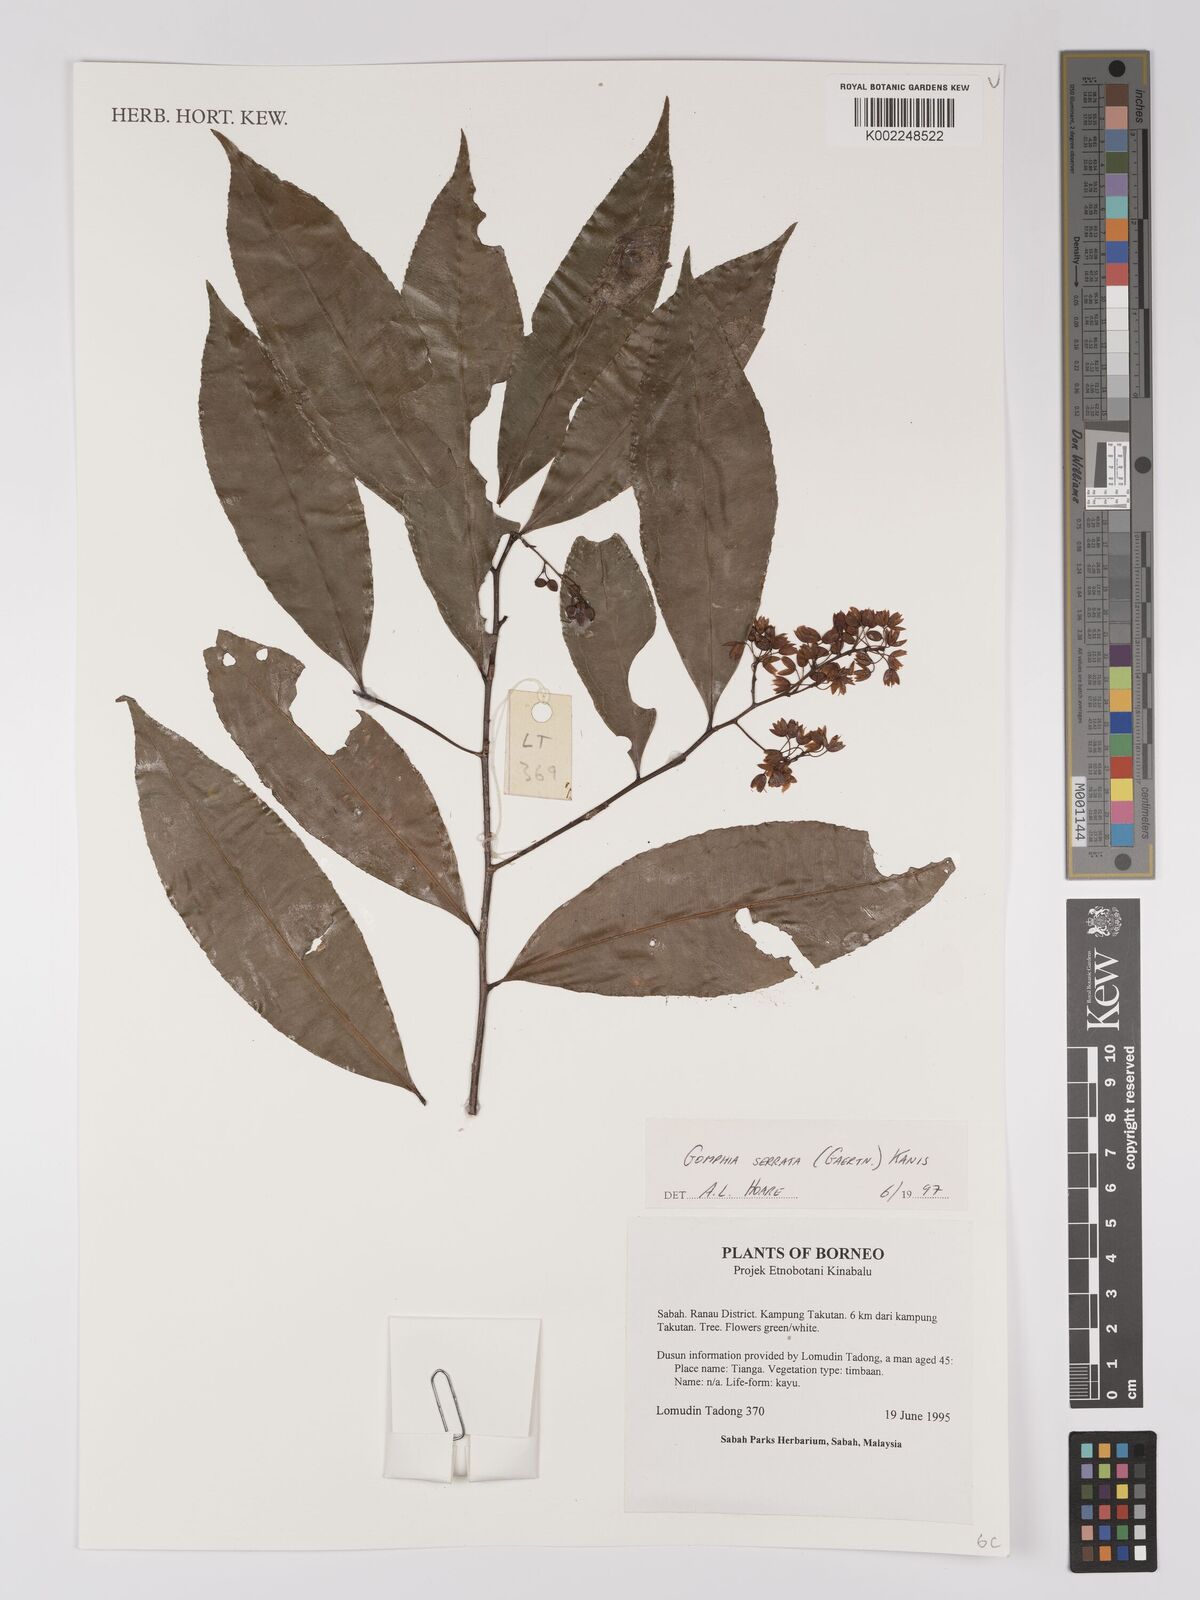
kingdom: Plantae
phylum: Tracheophyta
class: Magnoliopsida
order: Malpighiales
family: Ochnaceae
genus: Gomphia
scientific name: Gomphia serrata
